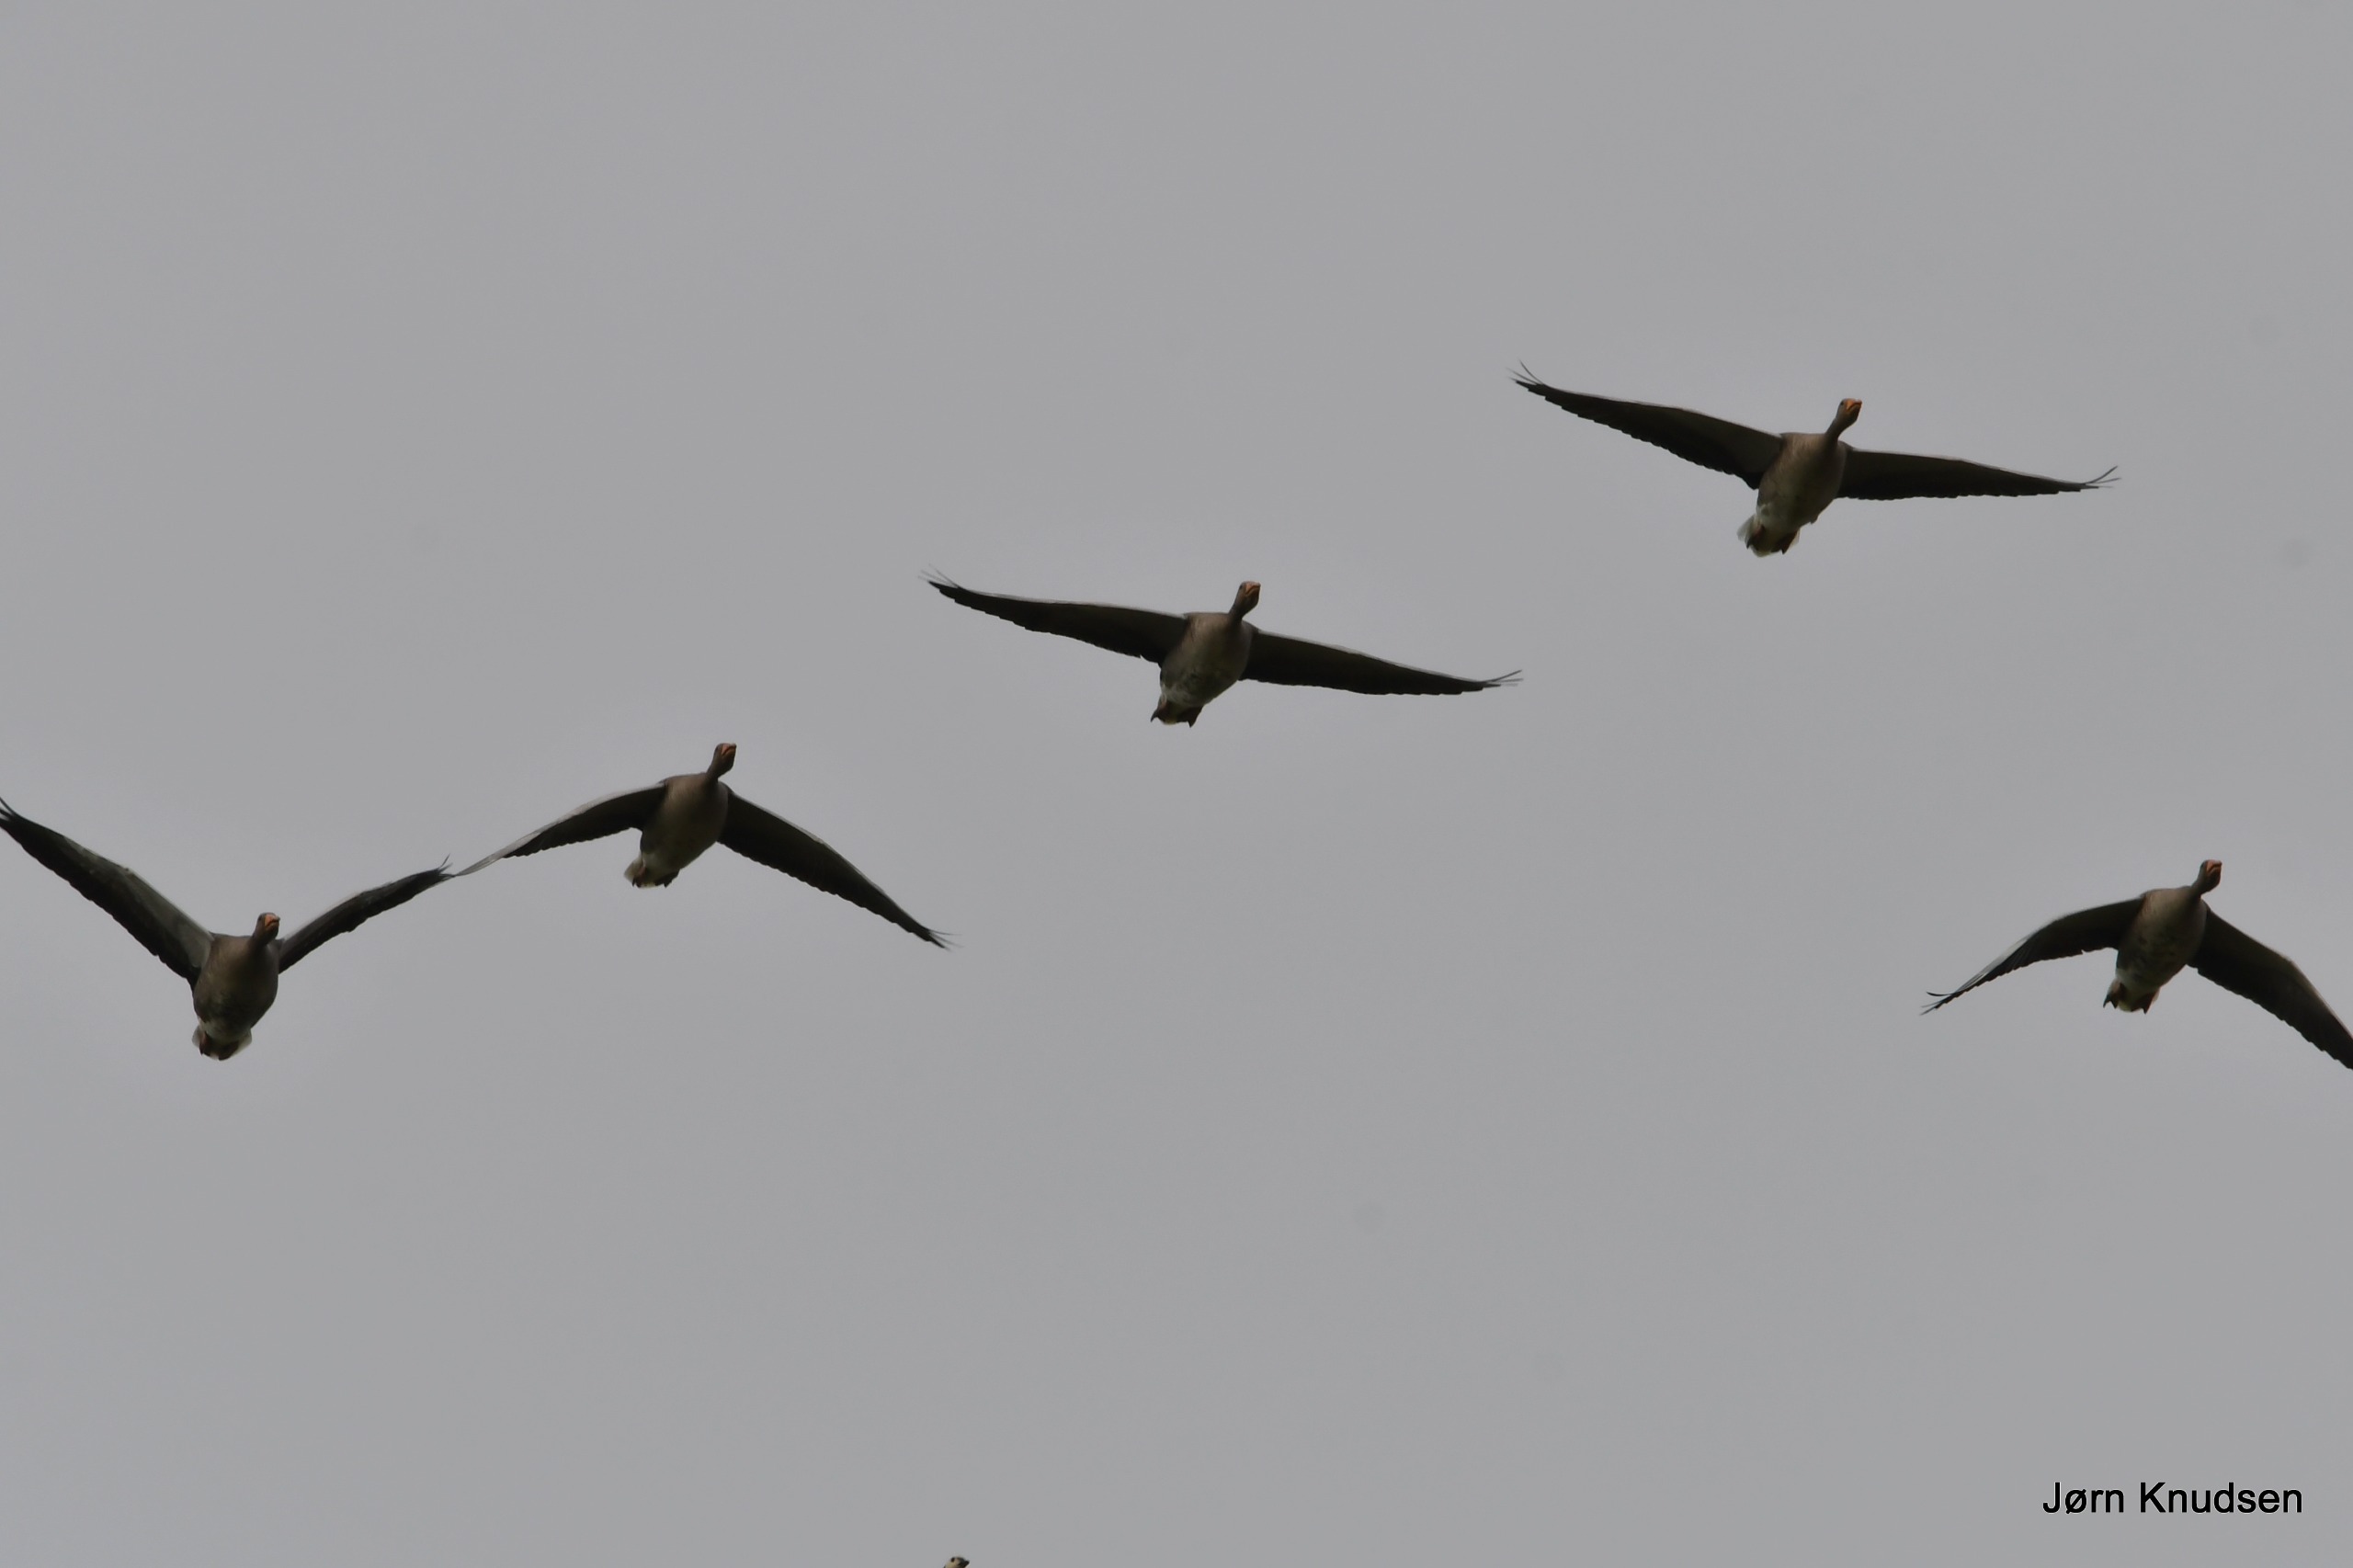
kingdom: Animalia
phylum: Chordata
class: Aves
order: Anseriformes
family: Anatidae
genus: Anser
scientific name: Anser anser
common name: Grågås
